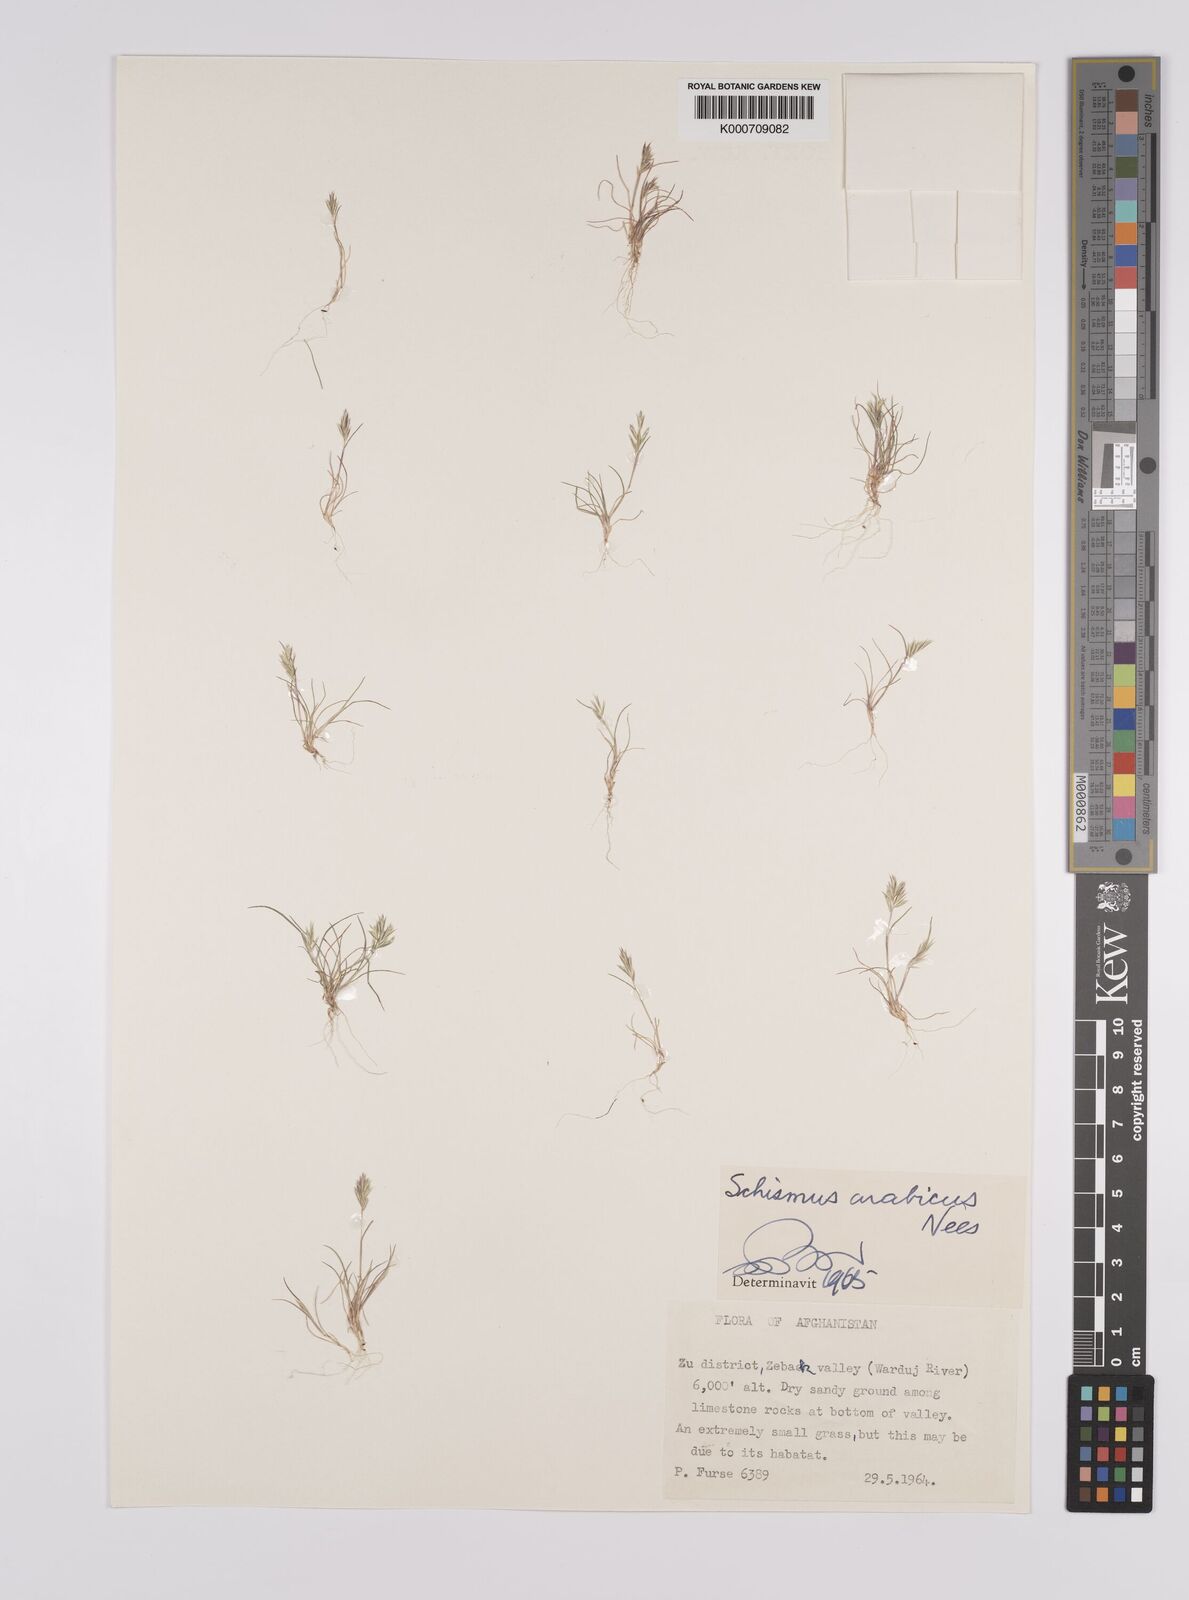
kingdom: Plantae
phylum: Tracheophyta
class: Liliopsida
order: Poales
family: Poaceae
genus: Schismus
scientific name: Schismus arabicus
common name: Arabian schismus
